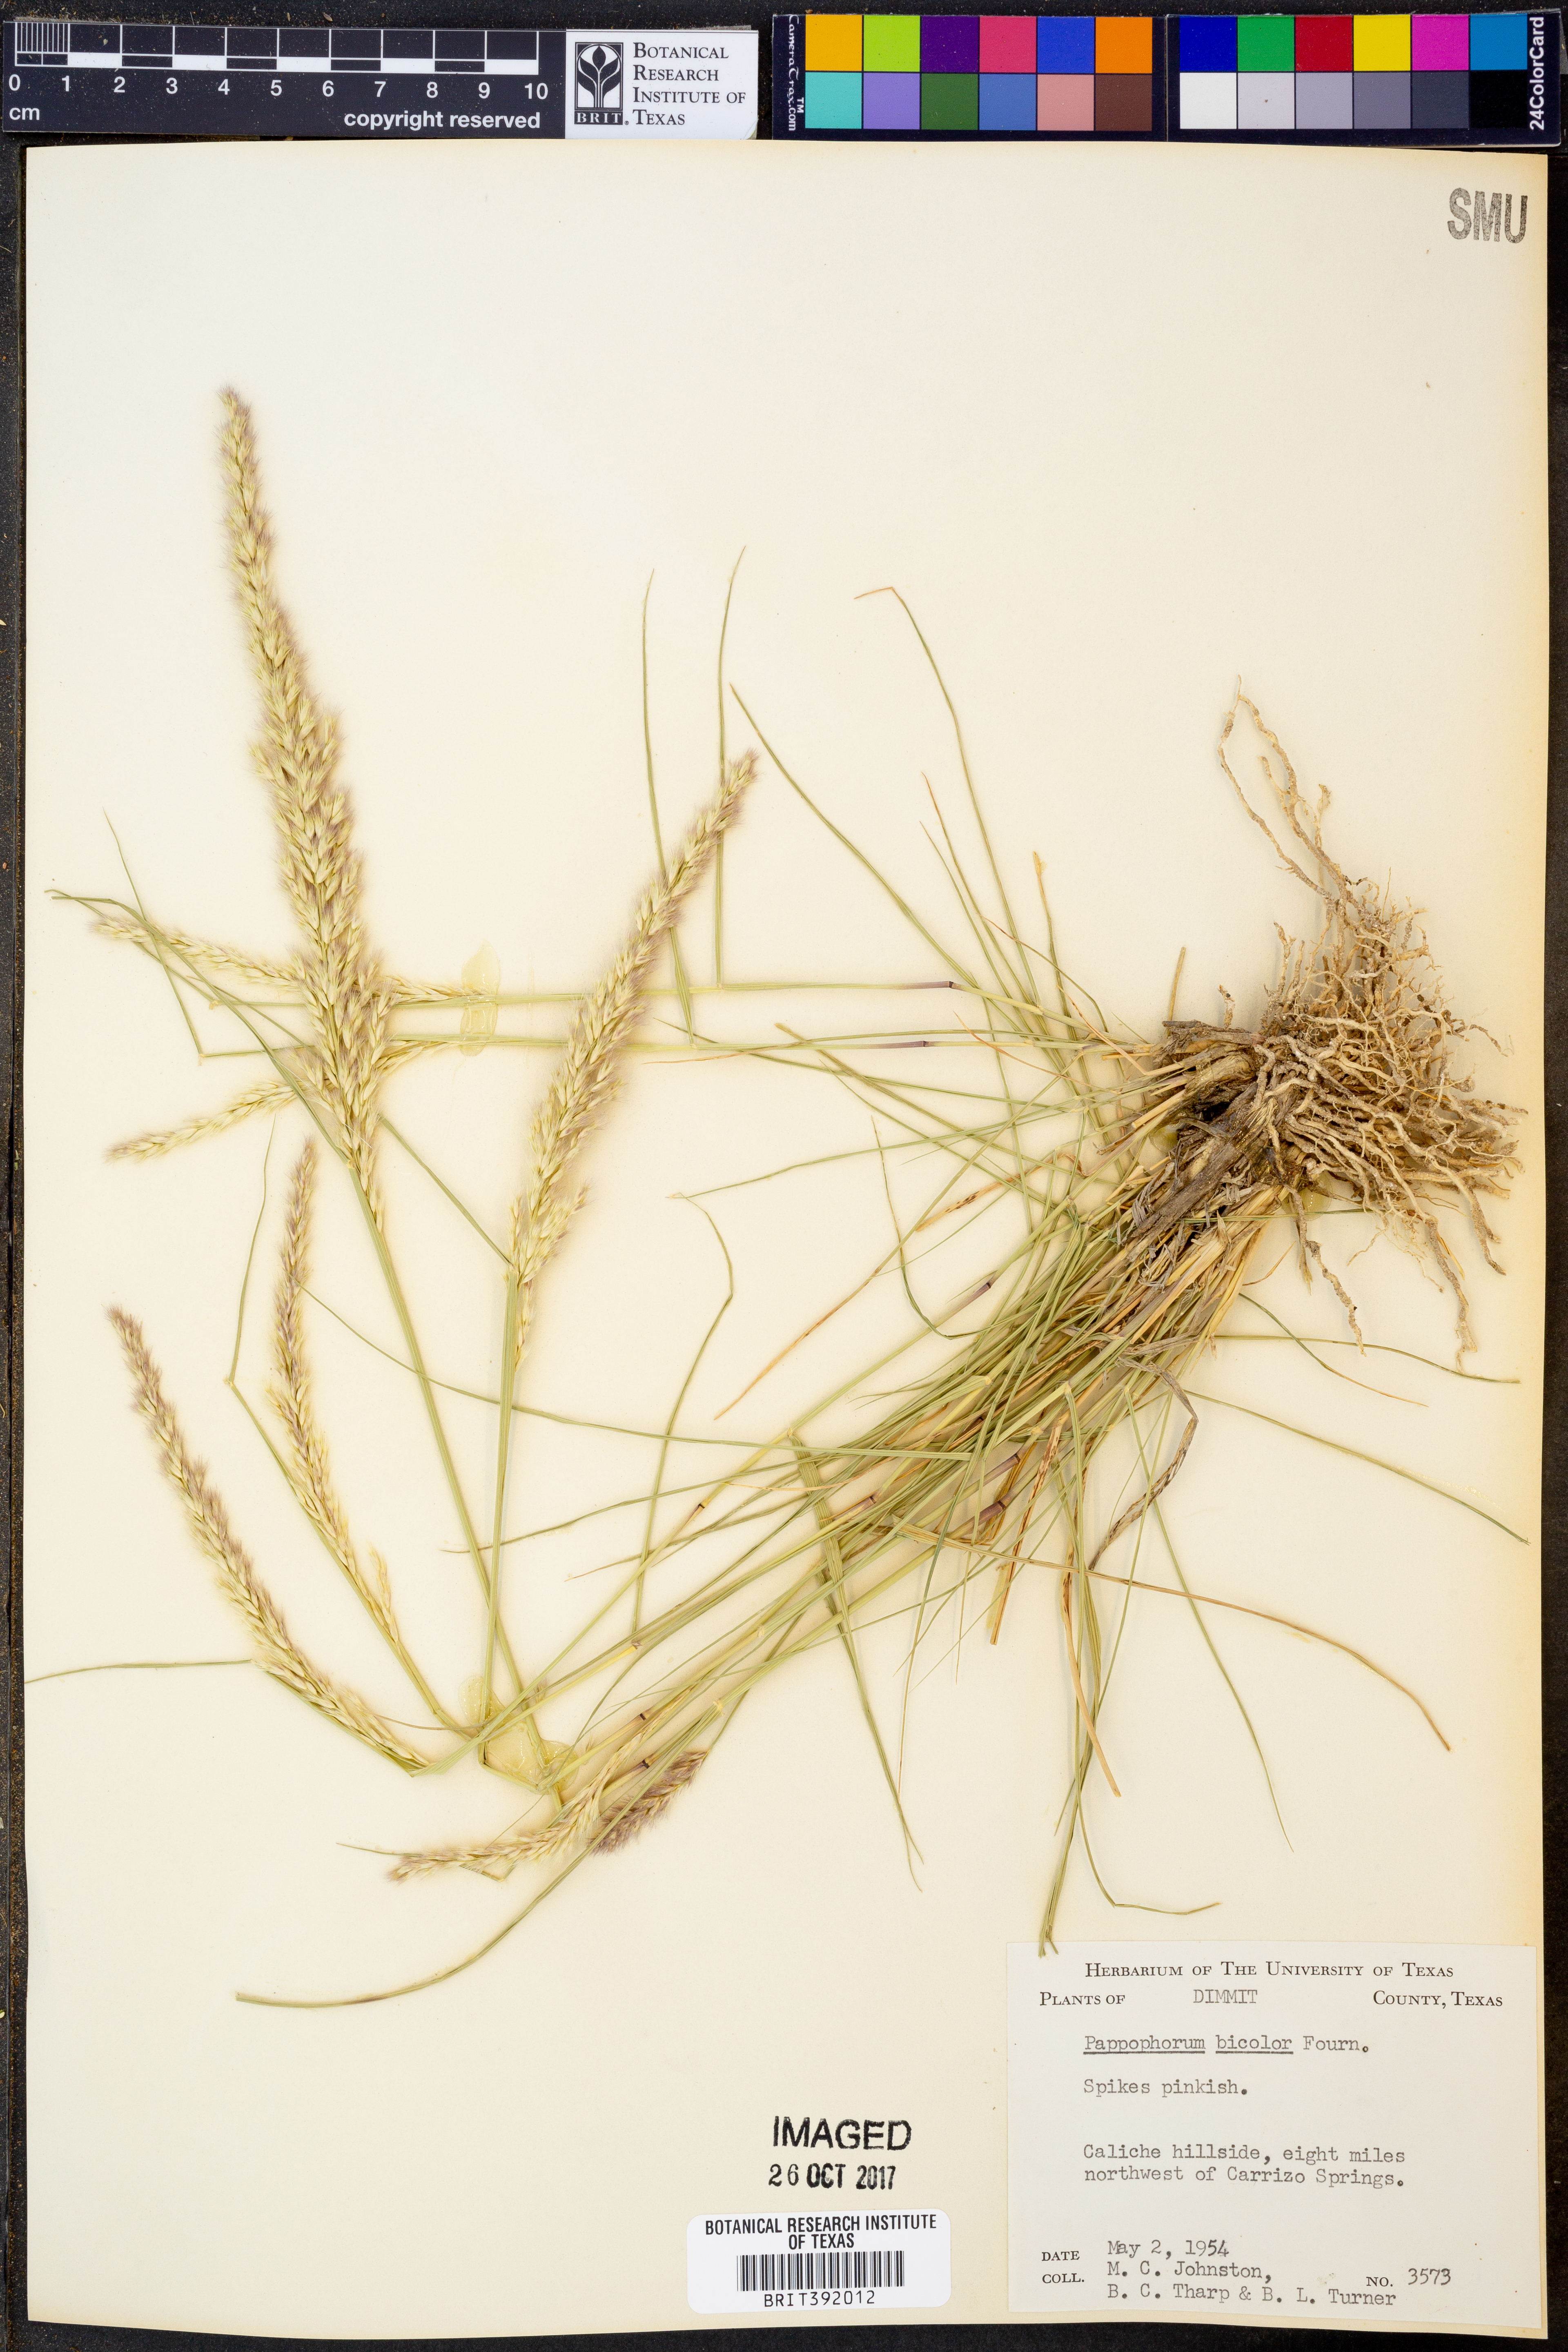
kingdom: Plantae
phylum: Tracheophyta
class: Liliopsida
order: Poales
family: Poaceae
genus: Pappophorum
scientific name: Pappophorum bicolor
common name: Pink pappus grass
